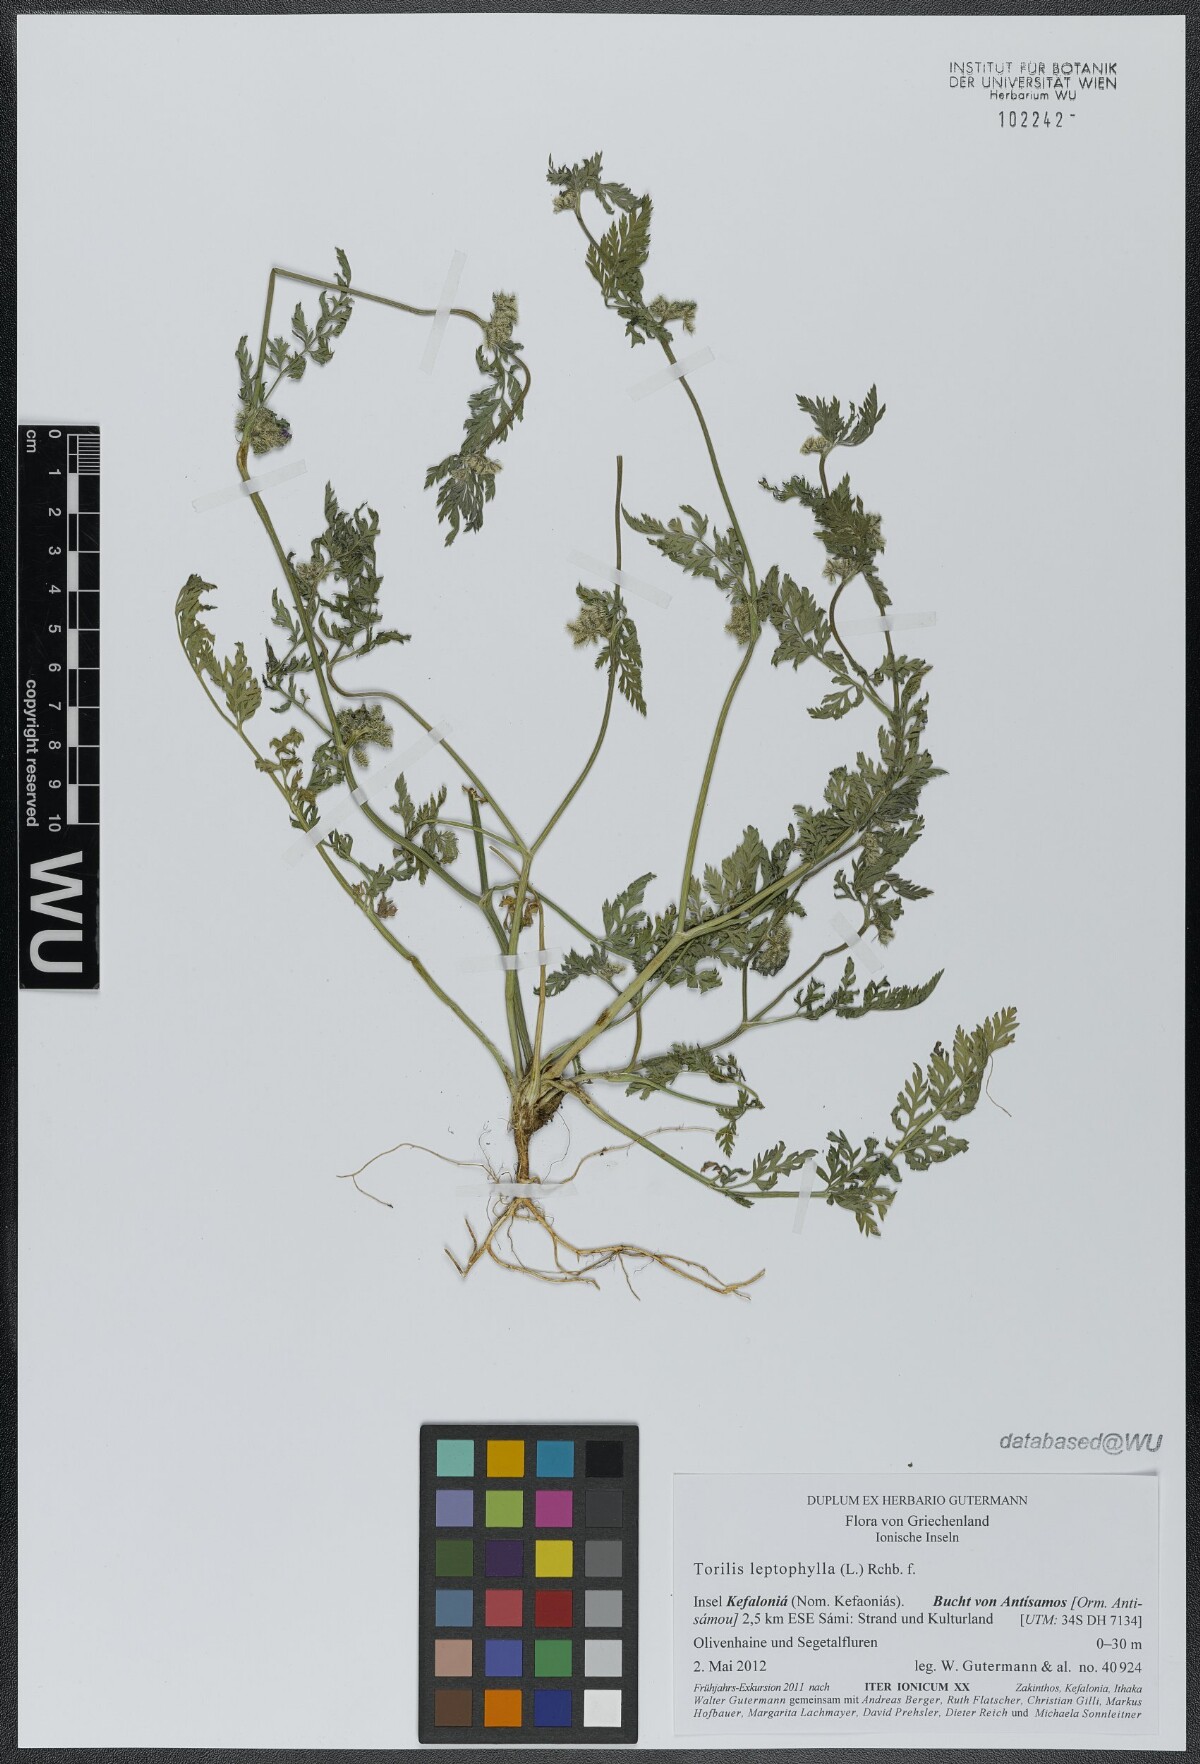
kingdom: Plantae
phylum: Tracheophyta
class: Magnoliopsida
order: Apiales
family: Apiaceae
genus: Torilis
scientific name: Torilis leptophylla
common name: Bristlefruit hedgeparsley
